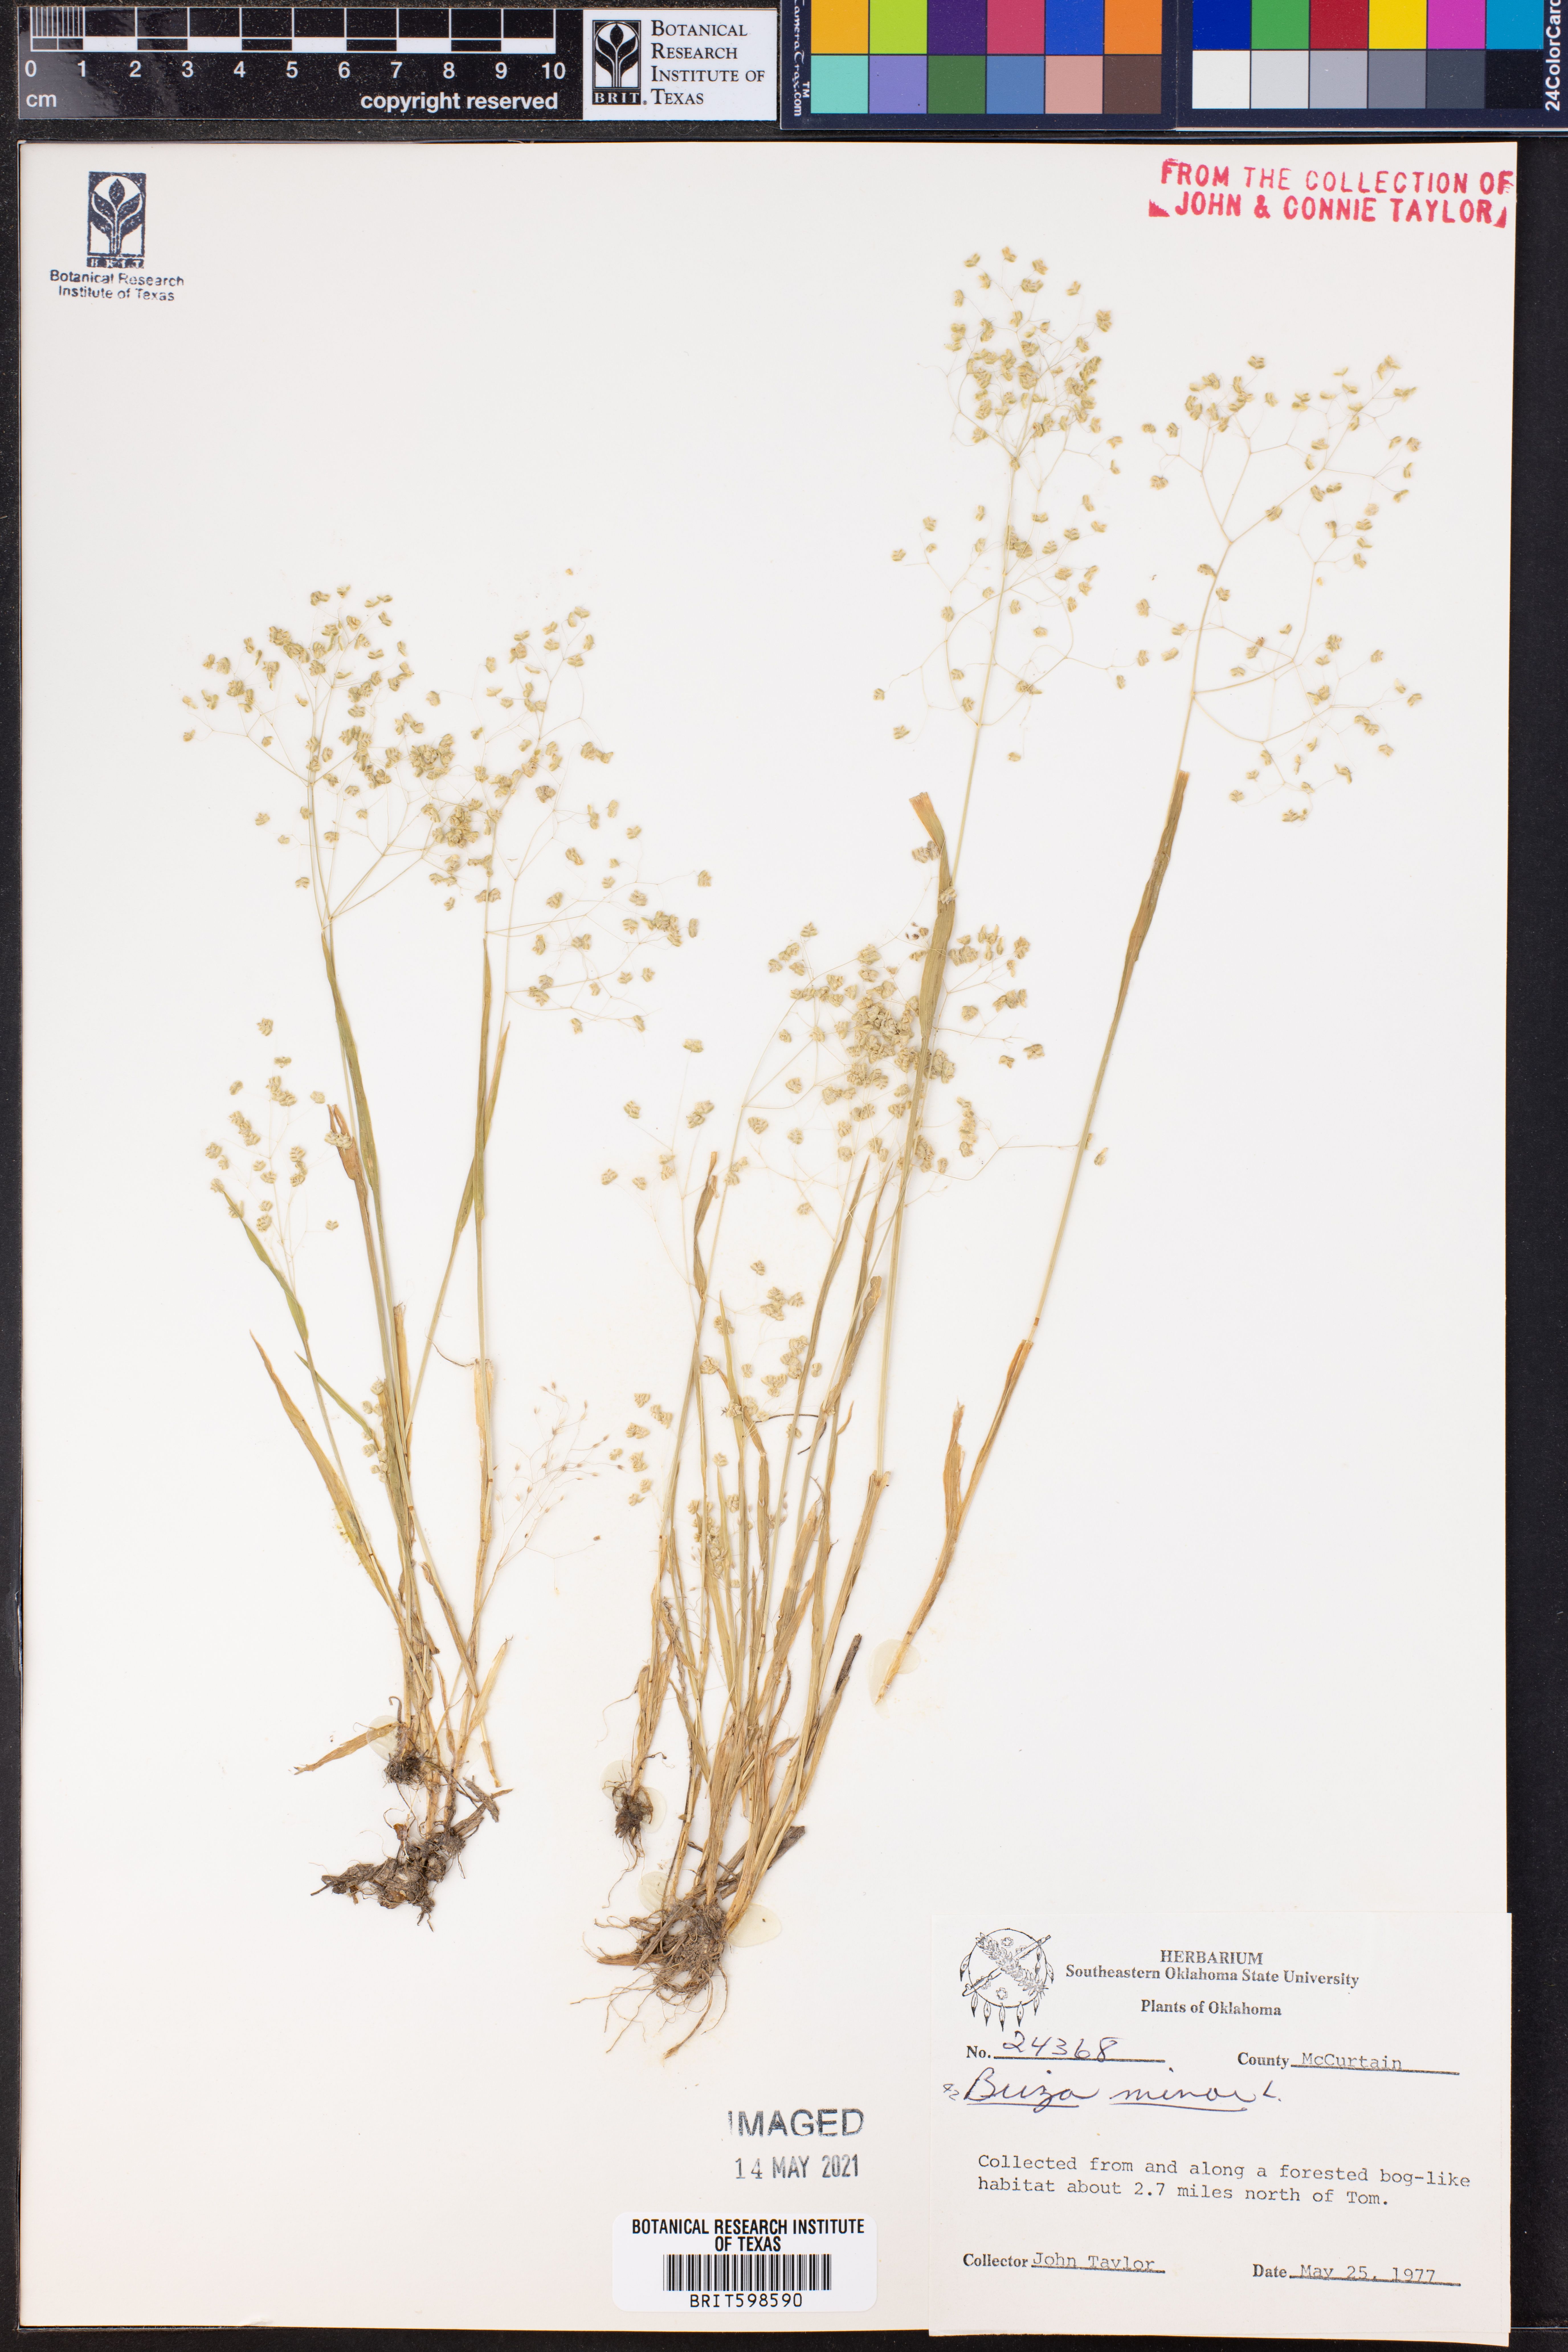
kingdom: Plantae
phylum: Tracheophyta
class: Liliopsida
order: Poales
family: Poaceae
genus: Briza
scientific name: Briza minor
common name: Lesser quaking-grass
